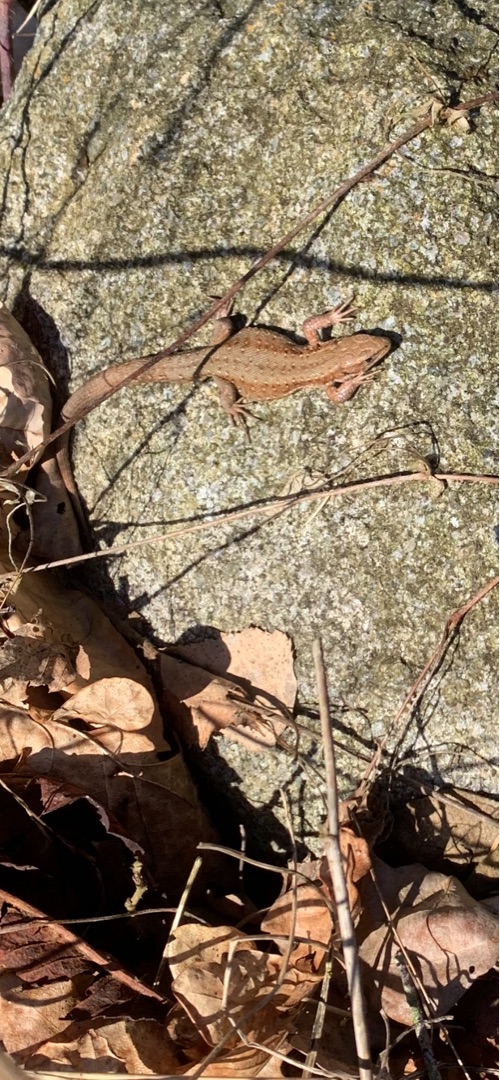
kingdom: Animalia
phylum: Chordata
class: Squamata
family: Lacertidae
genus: Zootoca
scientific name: Zootoca vivipara
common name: Skovfirben
